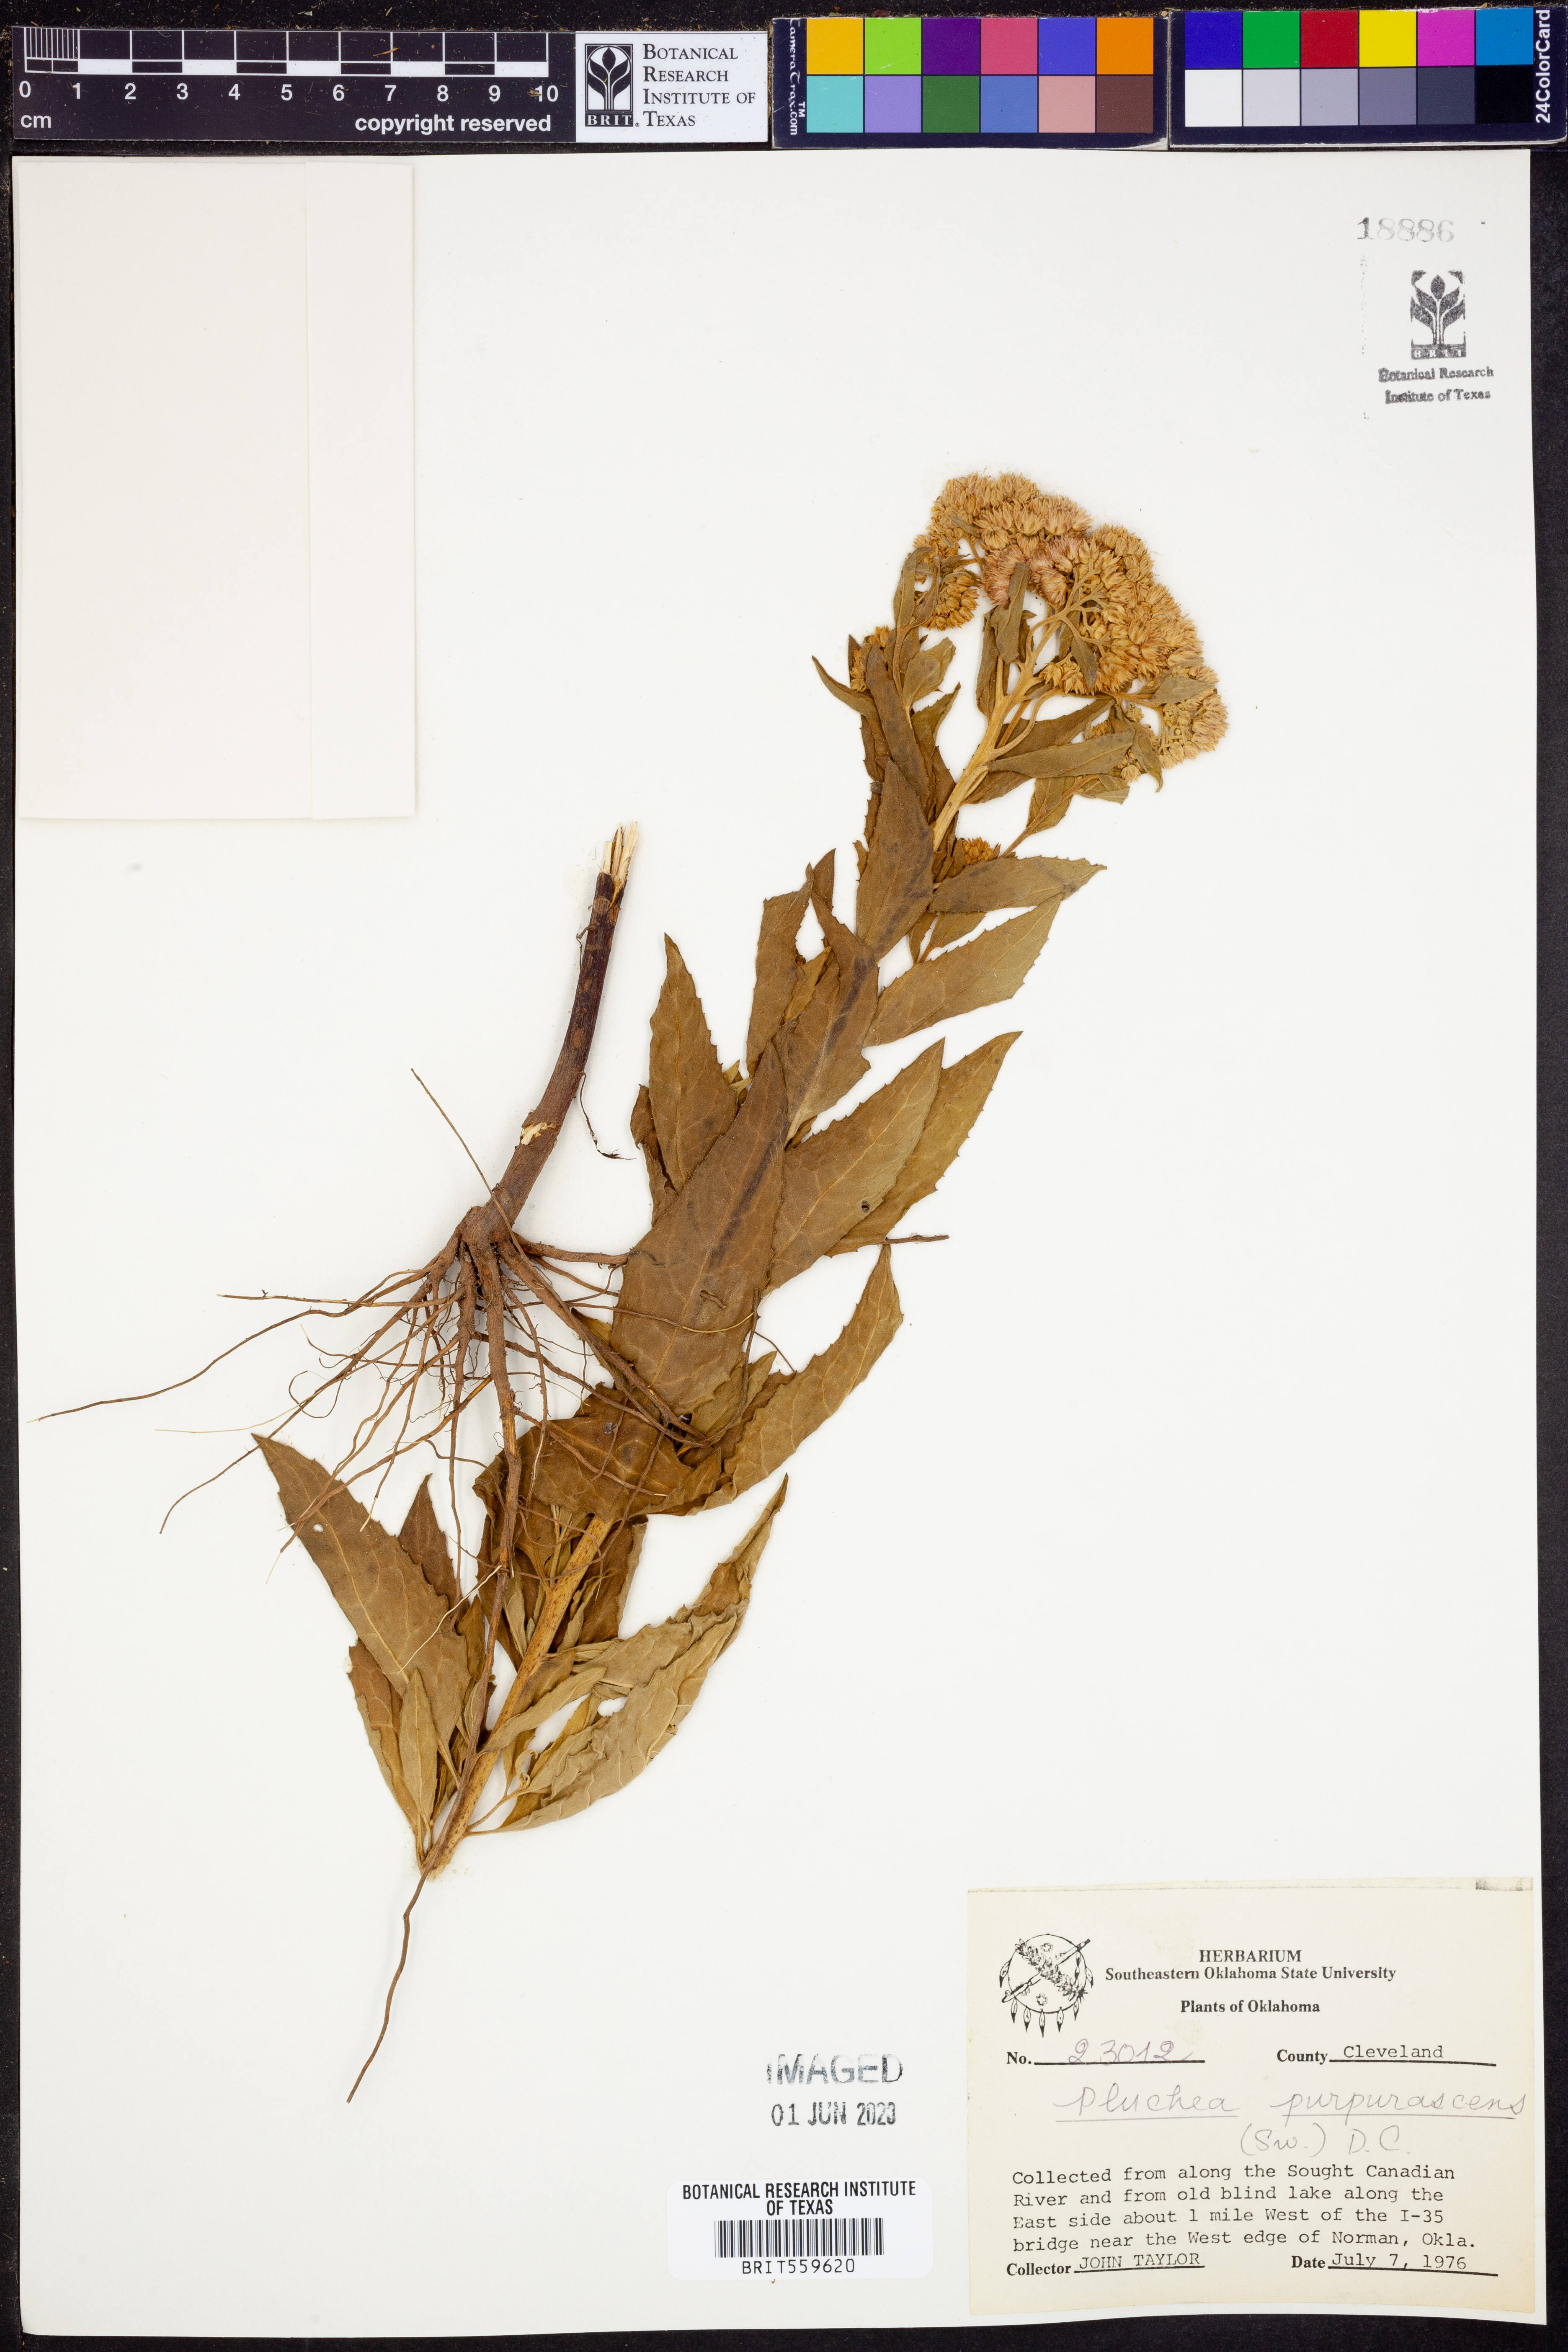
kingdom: Plantae
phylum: Tracheophyta
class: Magnoliopsida
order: Asterales
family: Asteraceae
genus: Pluchea
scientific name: Pluchea odorata
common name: Saltmarsh fleabane
